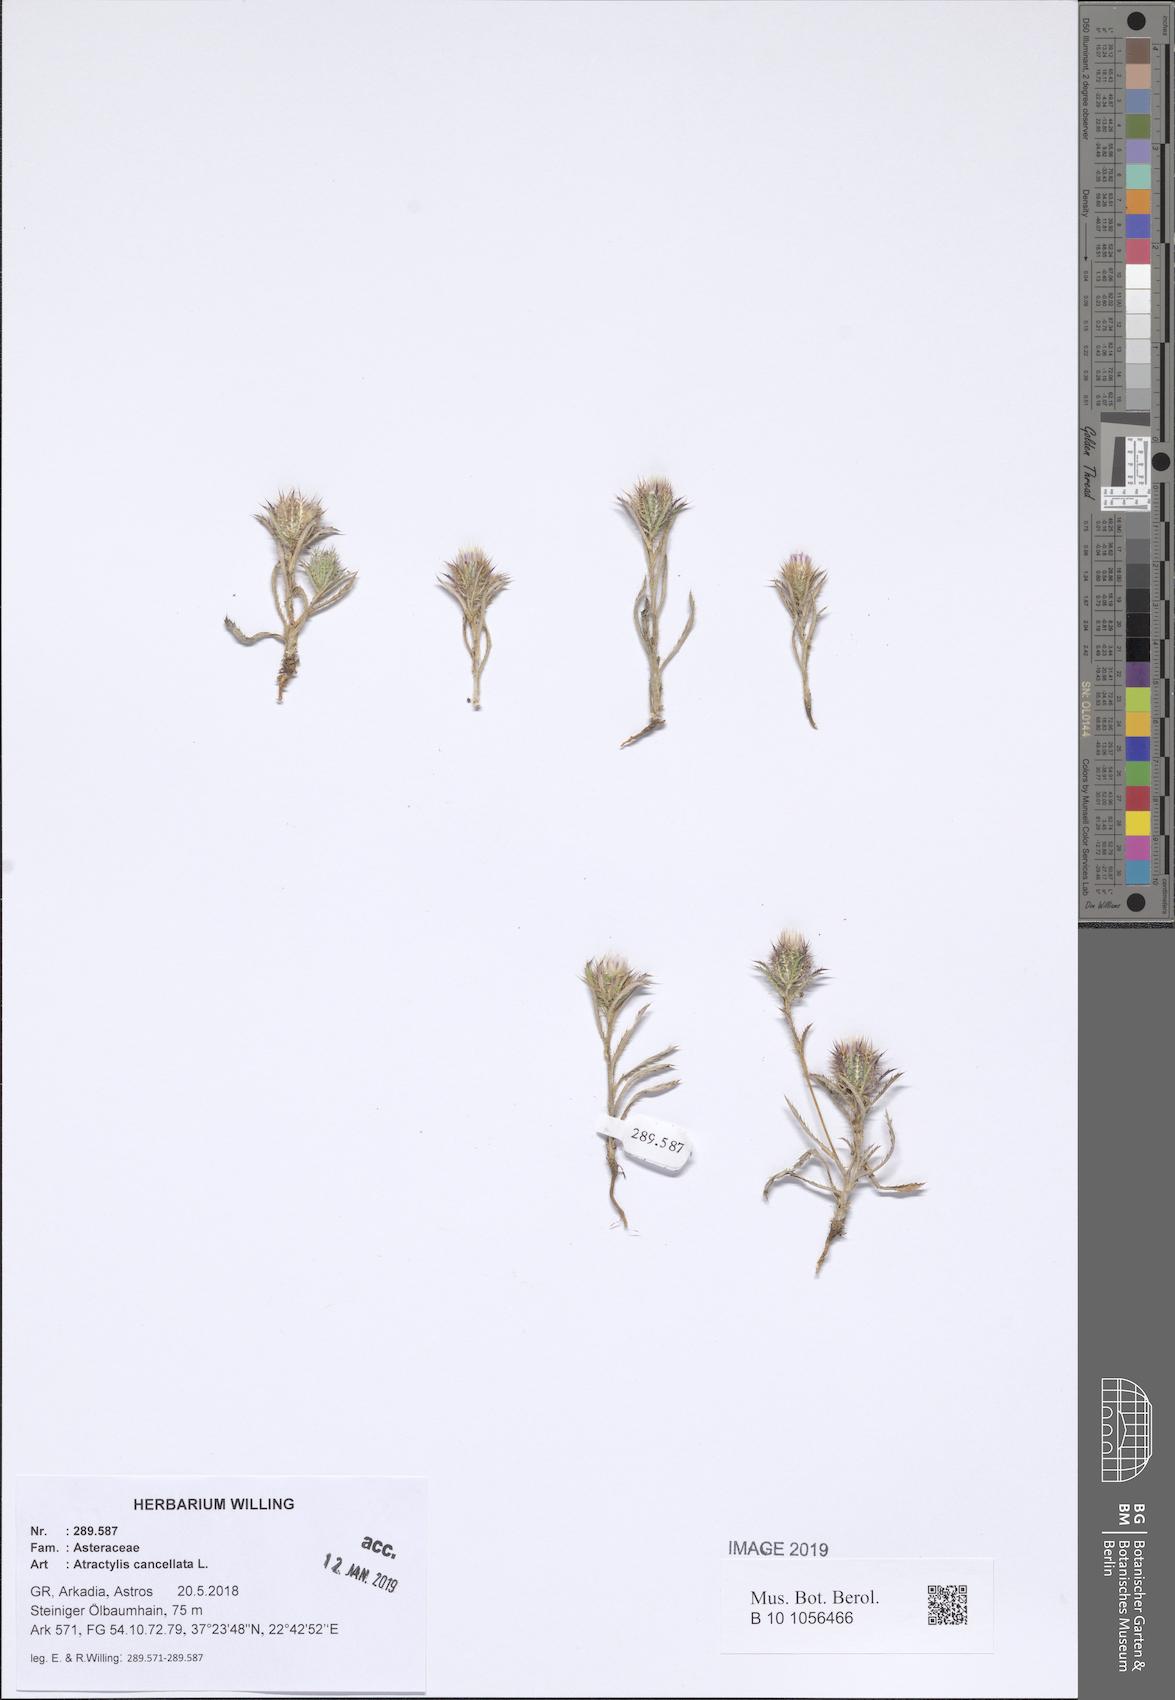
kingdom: Plantae
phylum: Tracheophyta
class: Magnoliopsida
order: Asterales
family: Asteraceae
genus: Atractylis
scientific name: Atractylis cancellata
